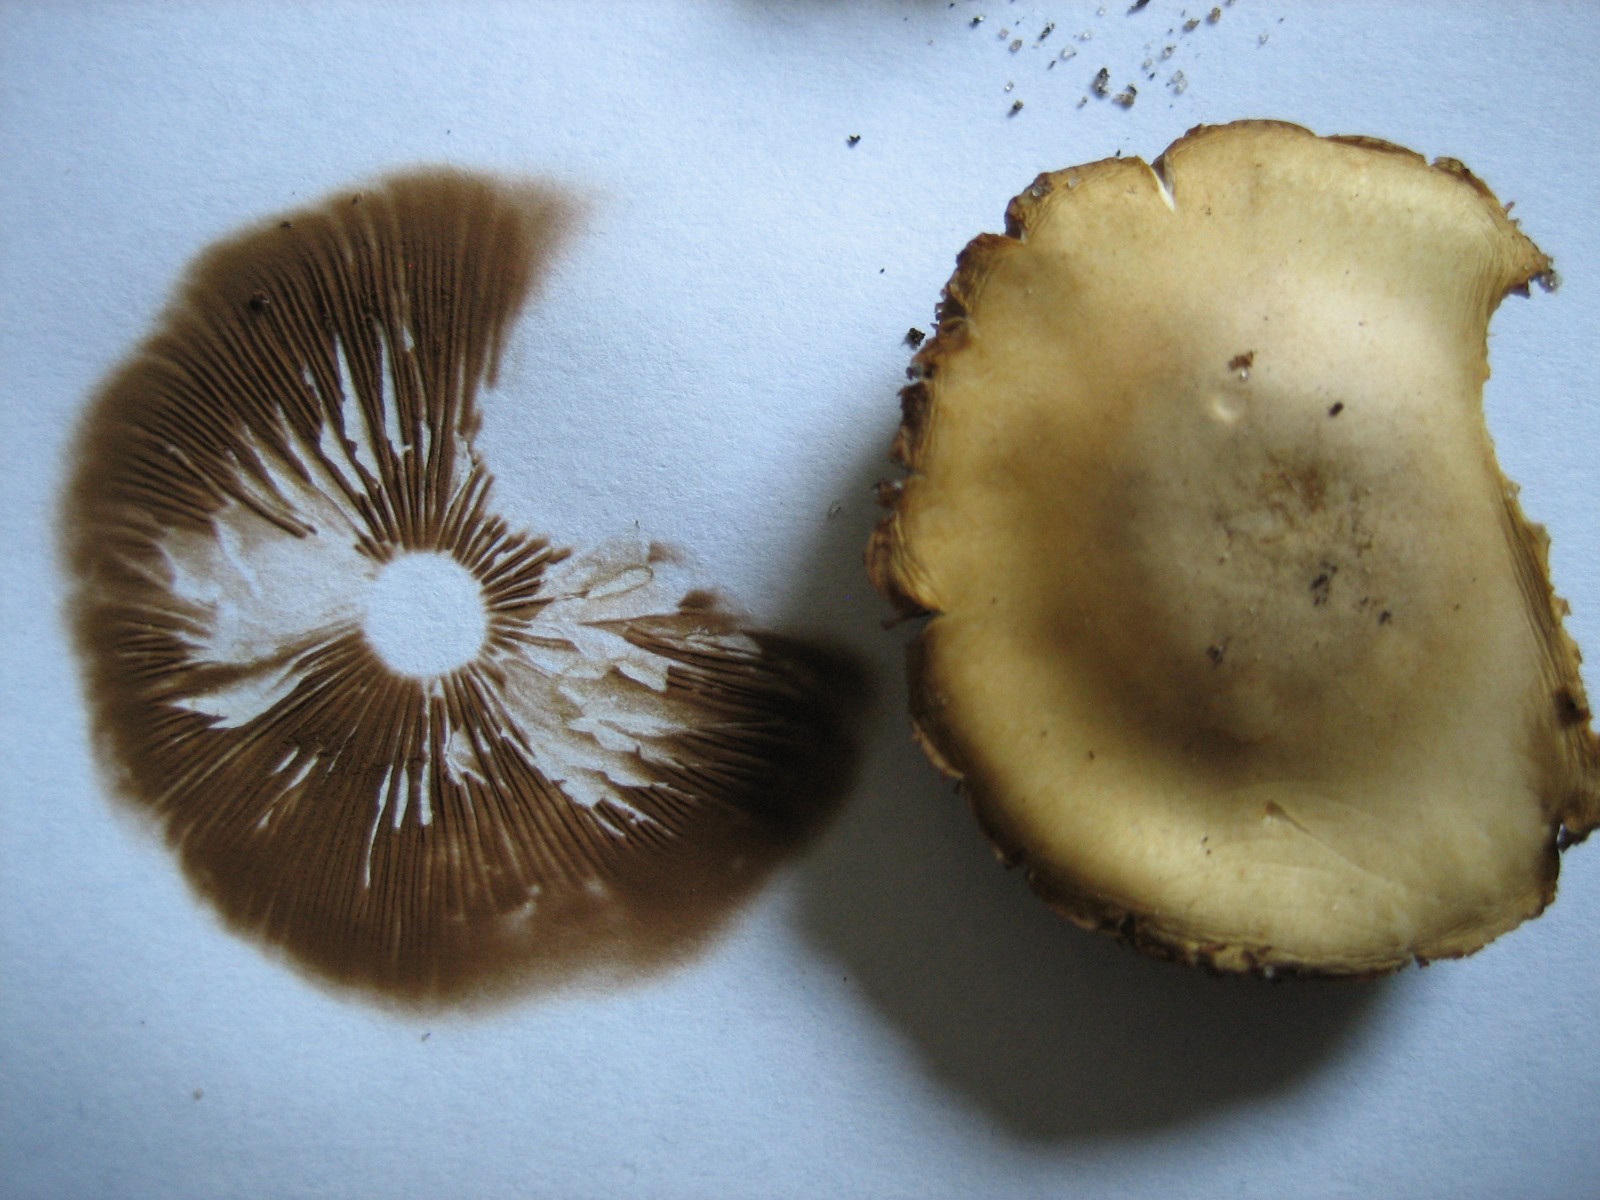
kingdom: Fungi
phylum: Basidiomycota
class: Agaricomycetes
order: Agaricales
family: Strophariaceae
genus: Agrocybe
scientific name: Agrocybe
